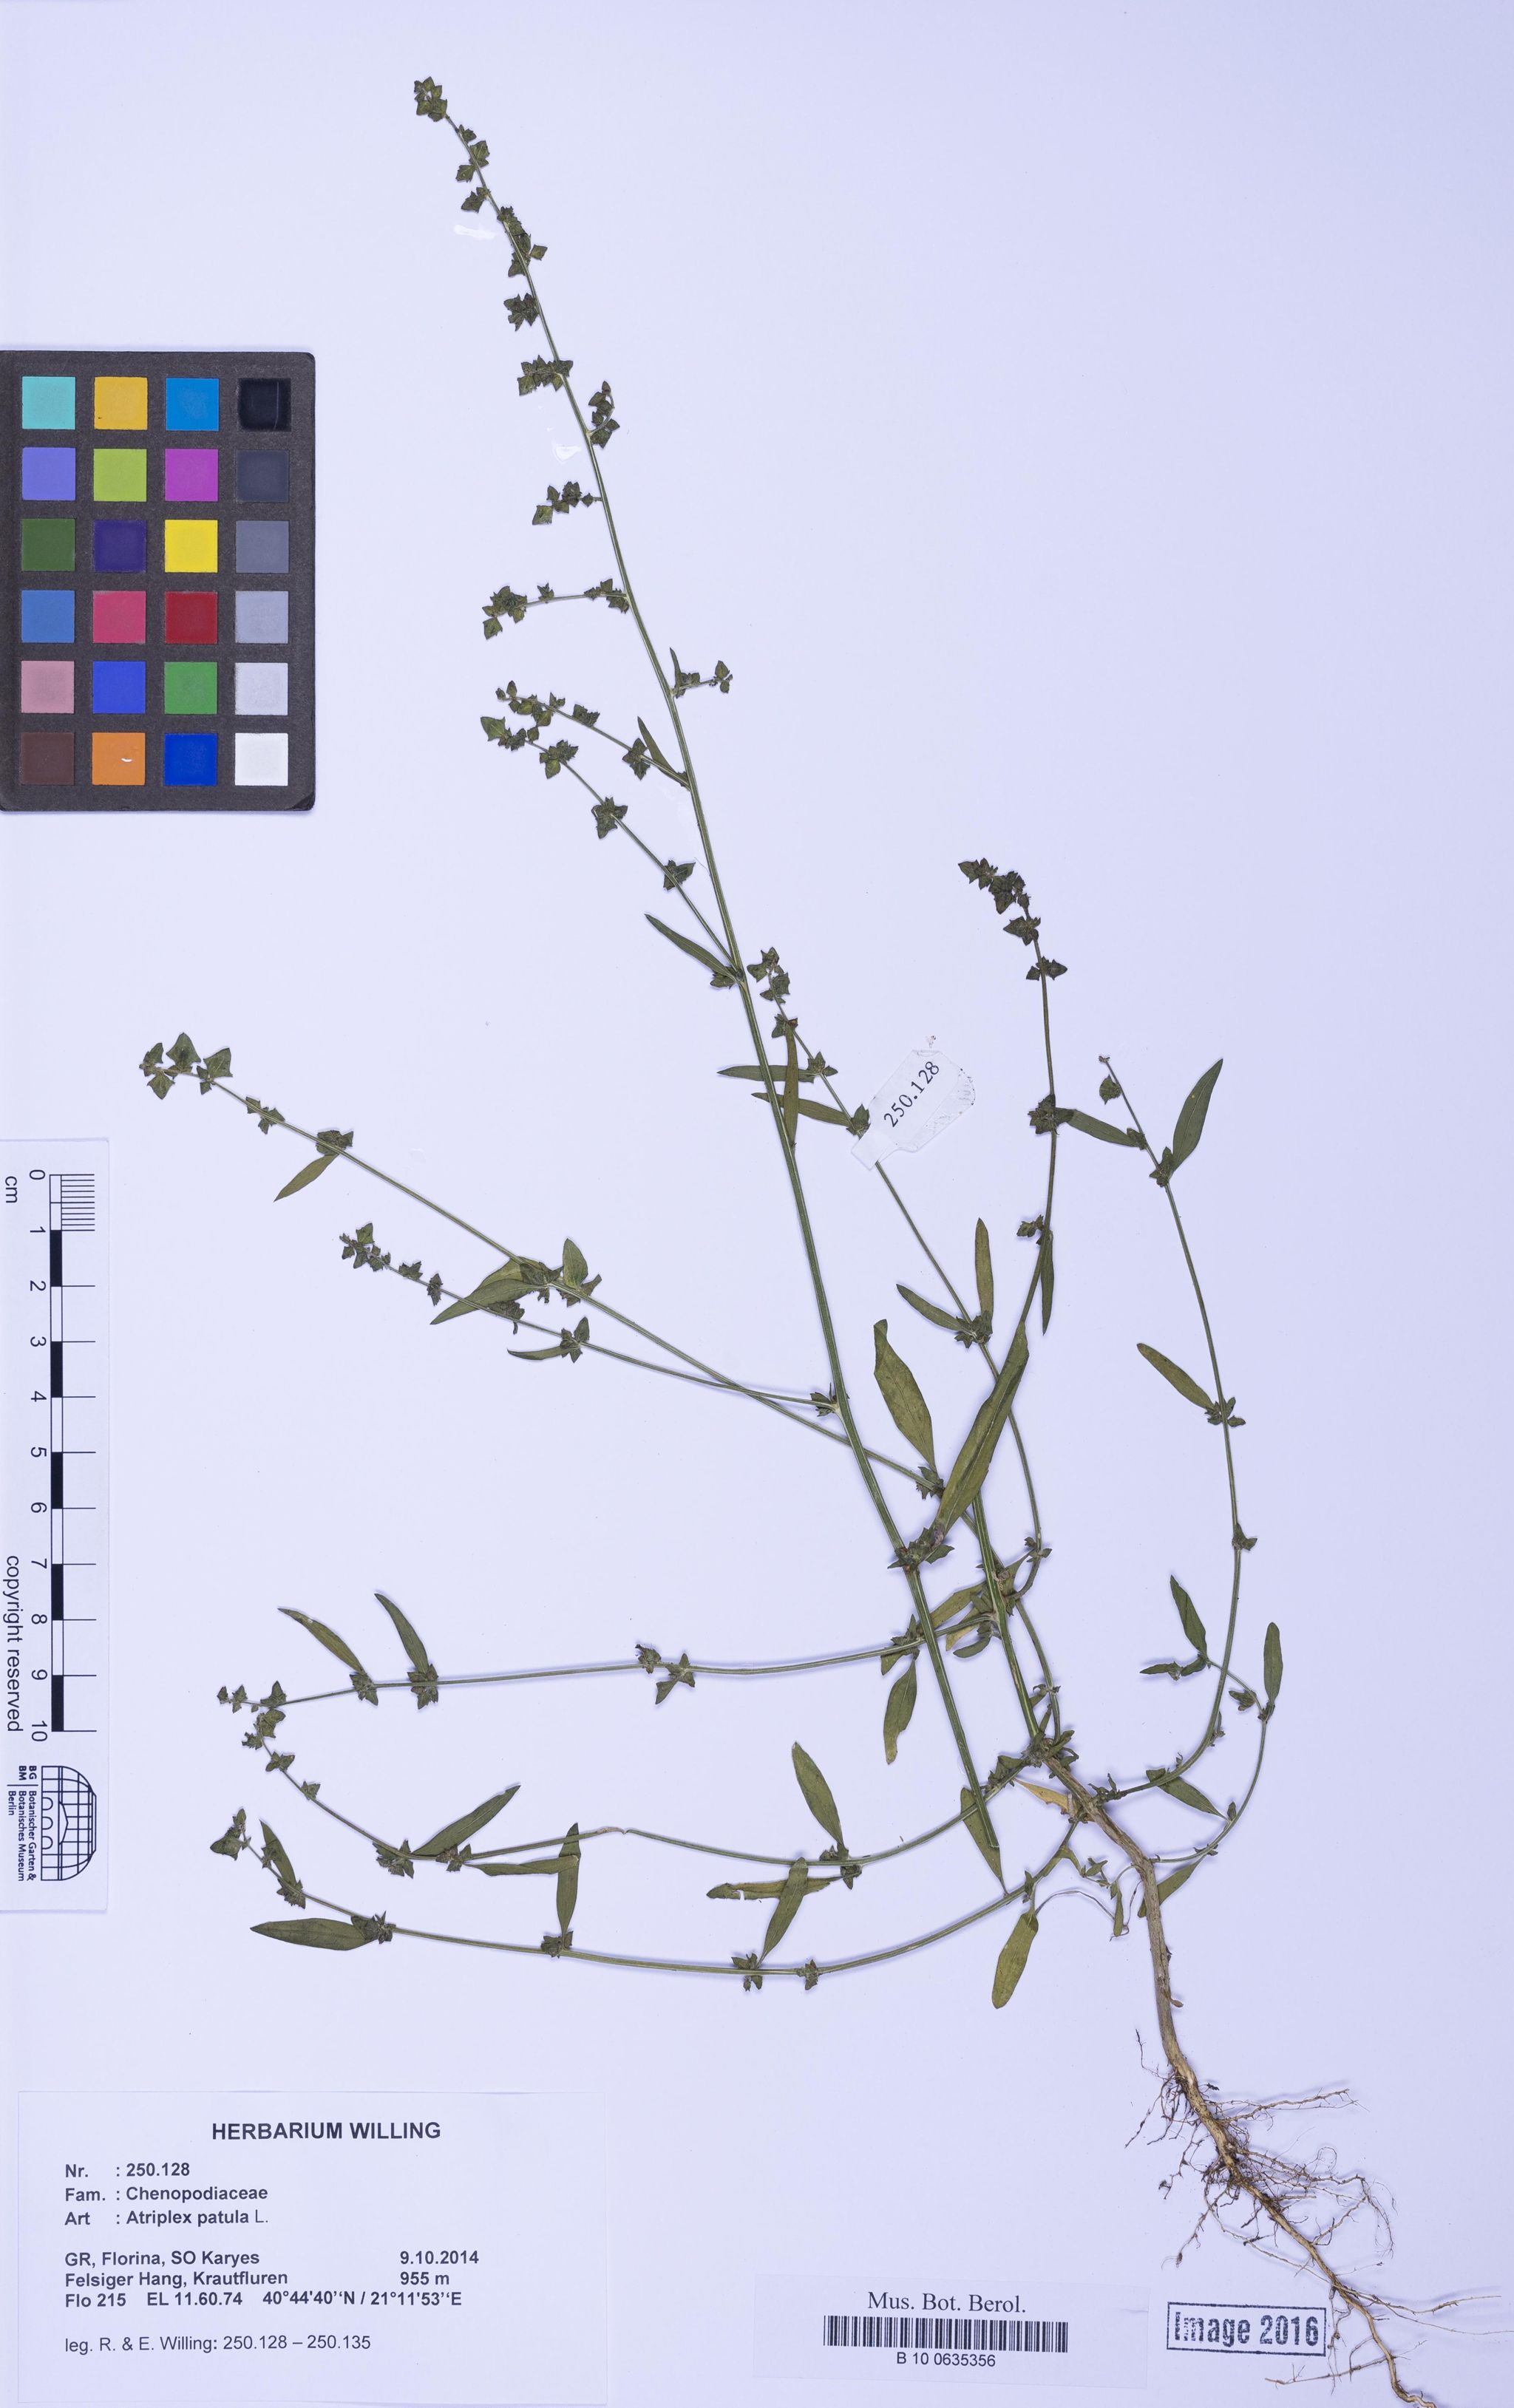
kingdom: Plantae
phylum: Tracheophyta
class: Magnoliopsida
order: Caryophyllales
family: Amaranthaceae
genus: Atriplex
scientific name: Atriplex patula
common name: Common orache
